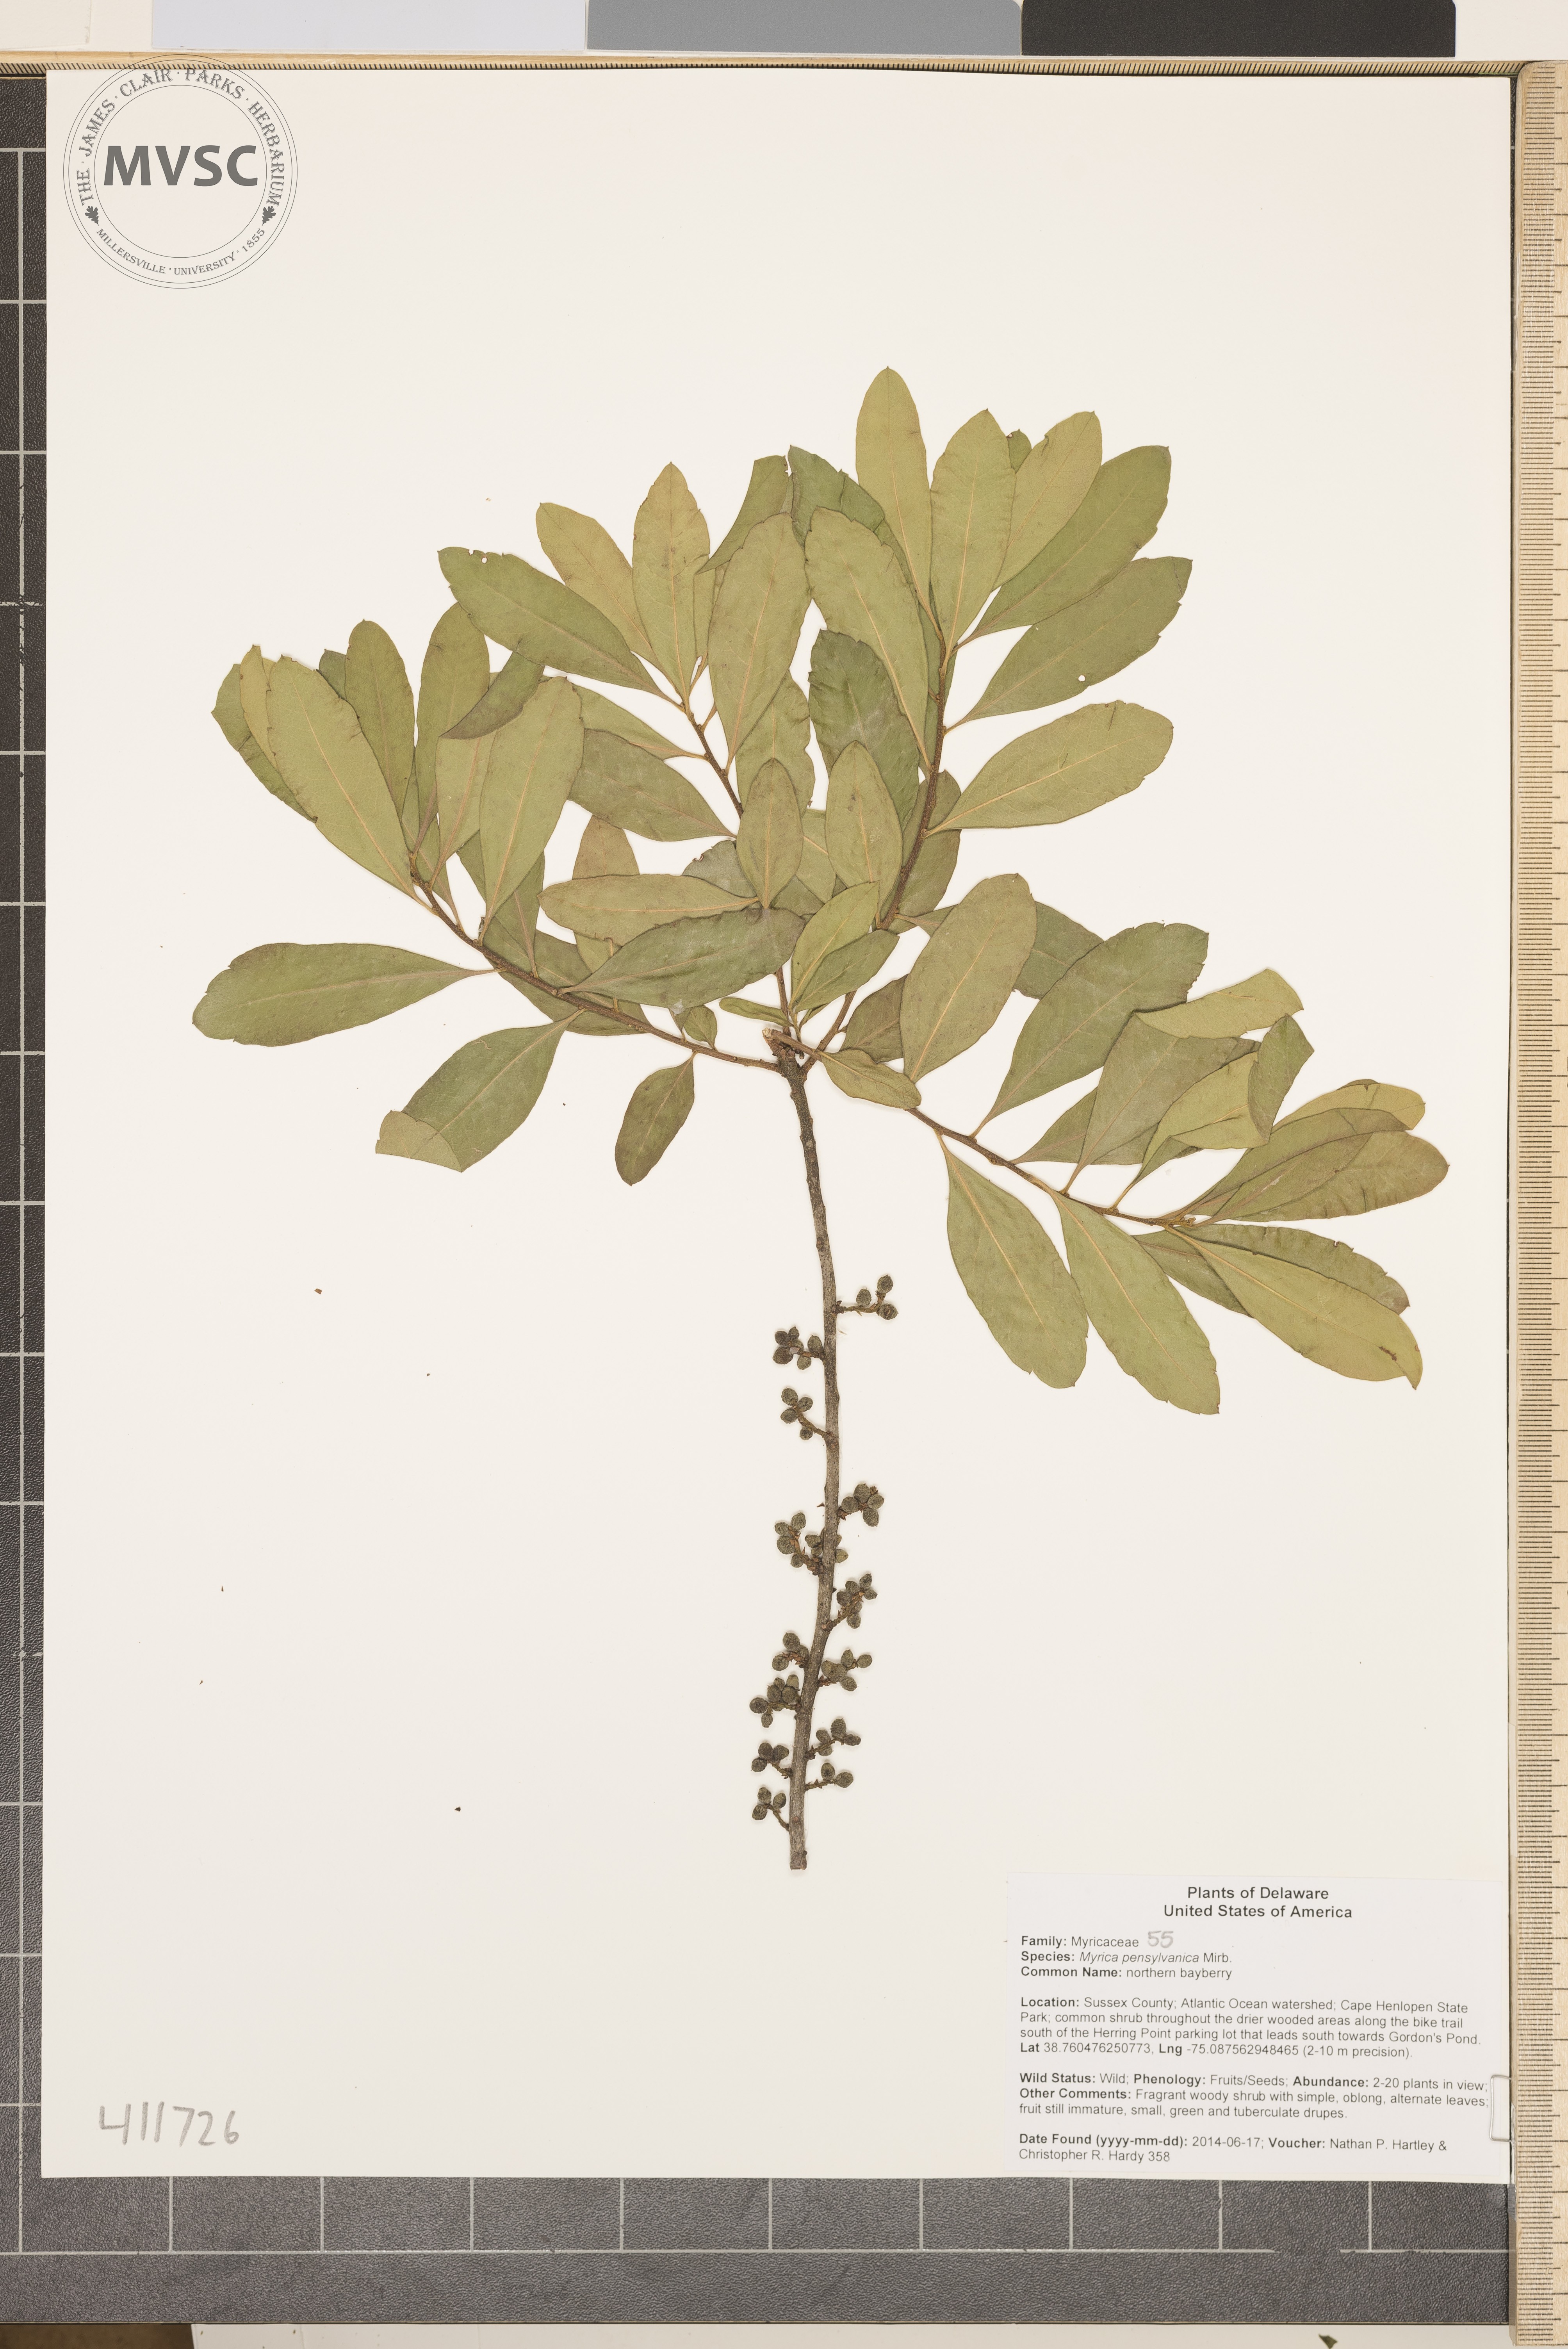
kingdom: Plantae
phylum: Tracheophyta
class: Magnoliopsida
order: Fagales
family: Myricaceae
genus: Morella
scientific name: Morella
